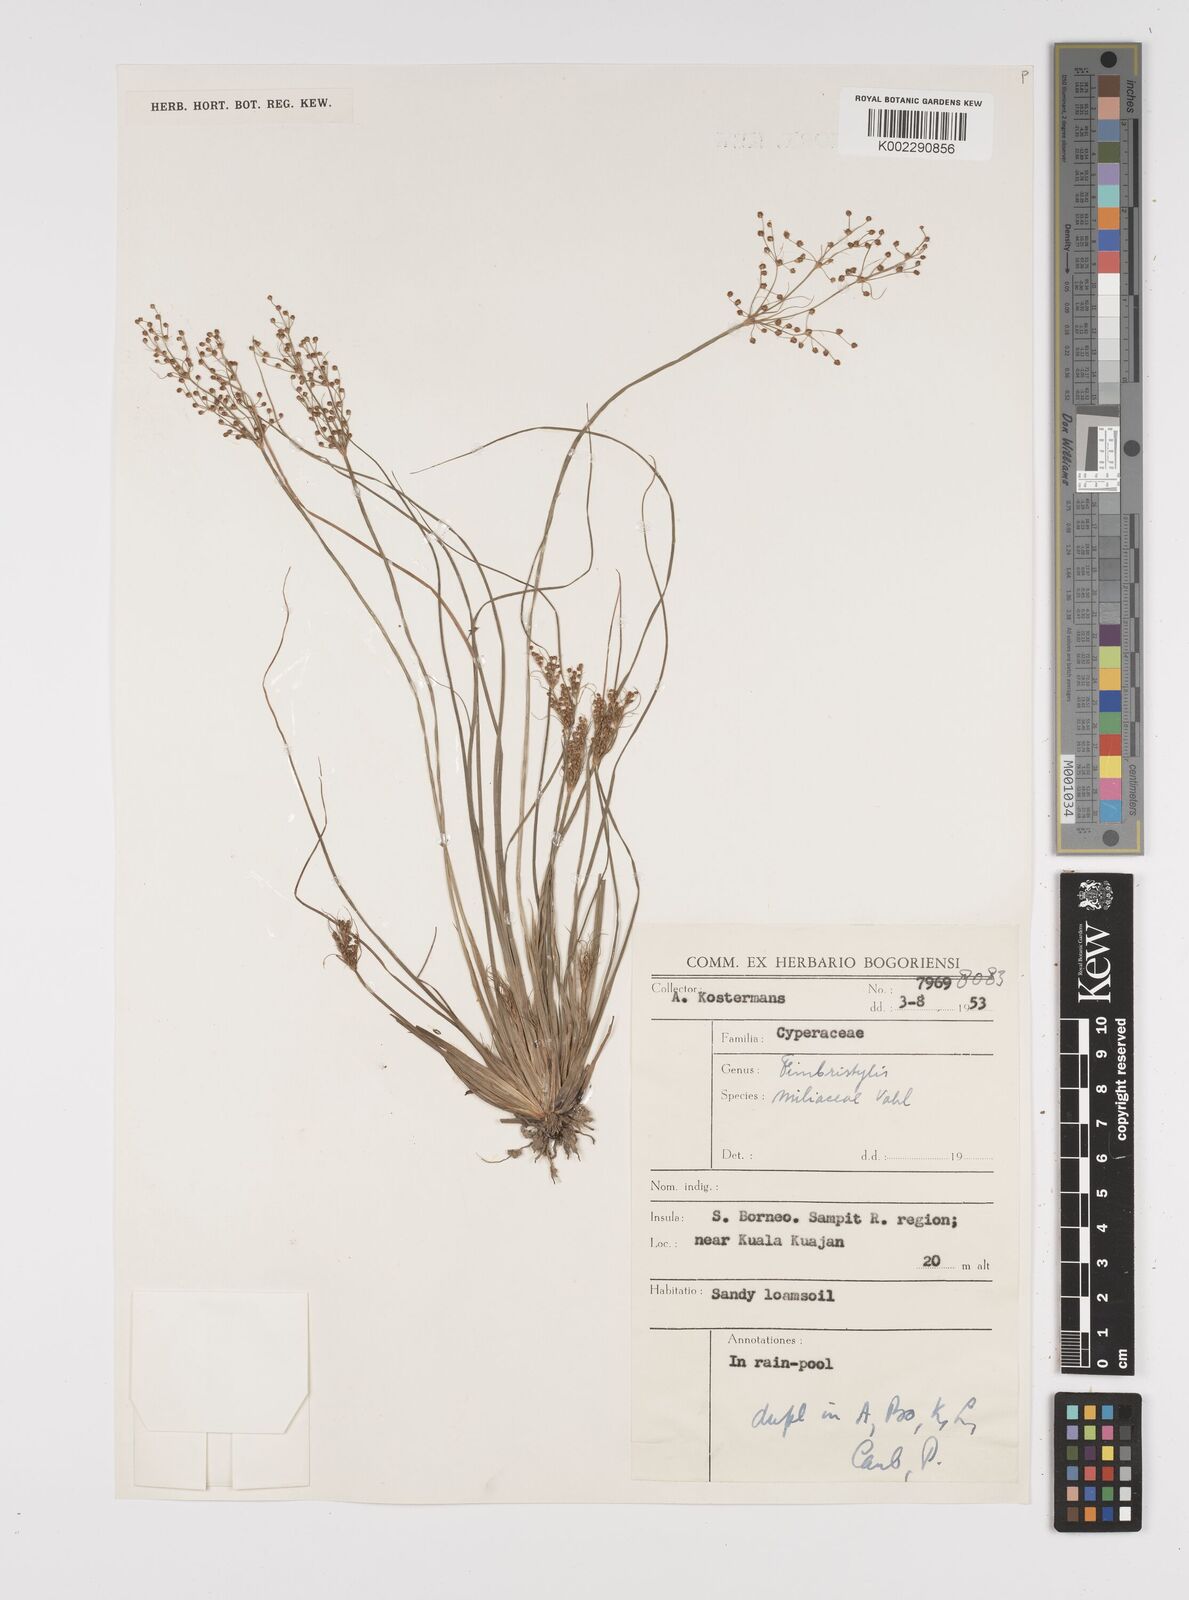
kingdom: Plantae
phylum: Tracheophyta
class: Liliopsida
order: Poales
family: Cyperaceae
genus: Fimbristylis
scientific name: Fimbristylis littoralis
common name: Fimbry
